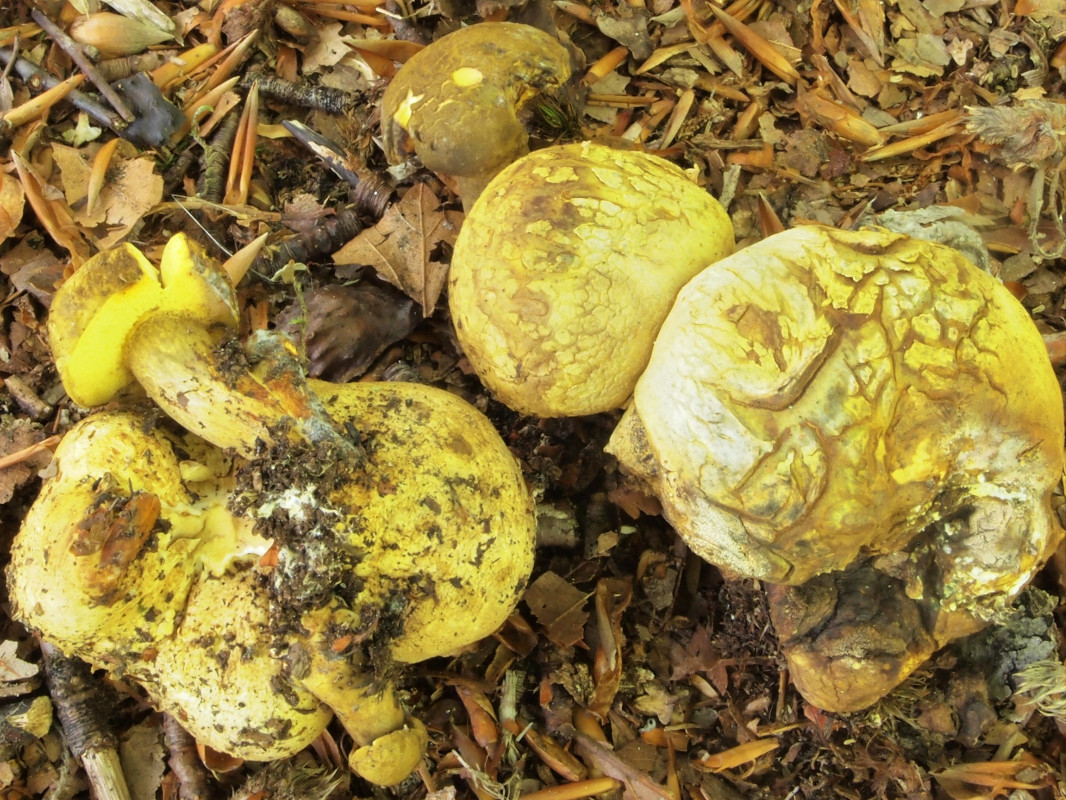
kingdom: Fungi
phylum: Basidiomycota
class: Agaricomycetes
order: Boletales
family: Boletaceae
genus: Pseudoboletus
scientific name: Pseudoboletus parasiticus
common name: snyltende rørhat
